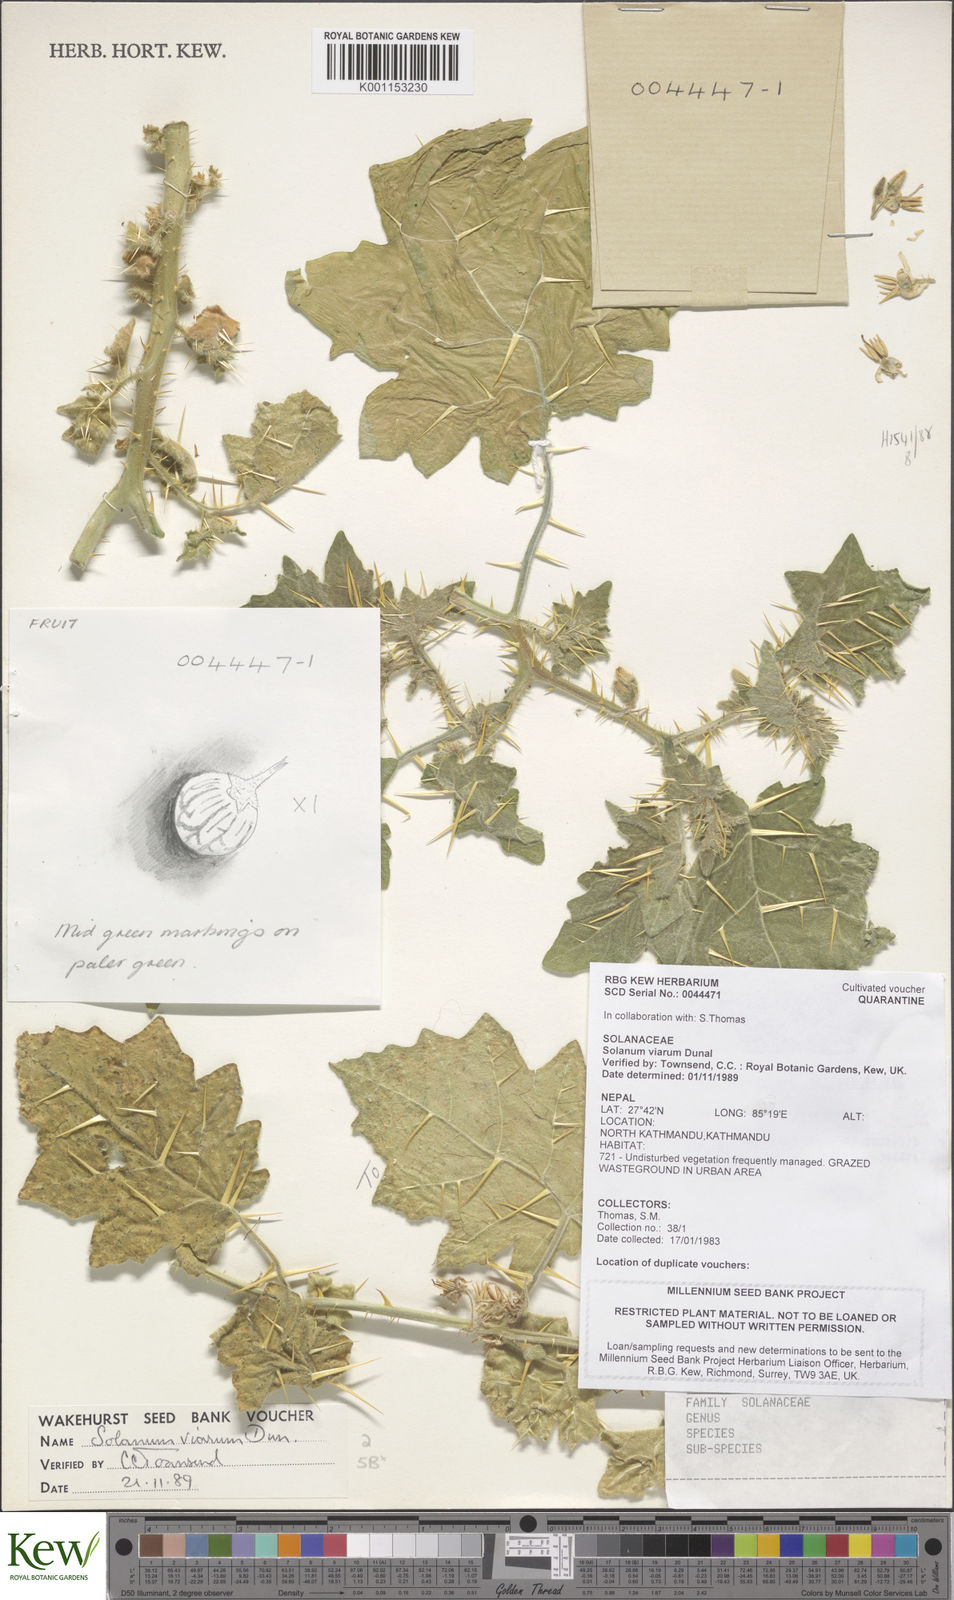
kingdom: Plantae
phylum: Tracheophyta
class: Magnoliopsida
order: Solanales
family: Solanaceae
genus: Solanum
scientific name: Solanum viarum
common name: Tropical soda apple
